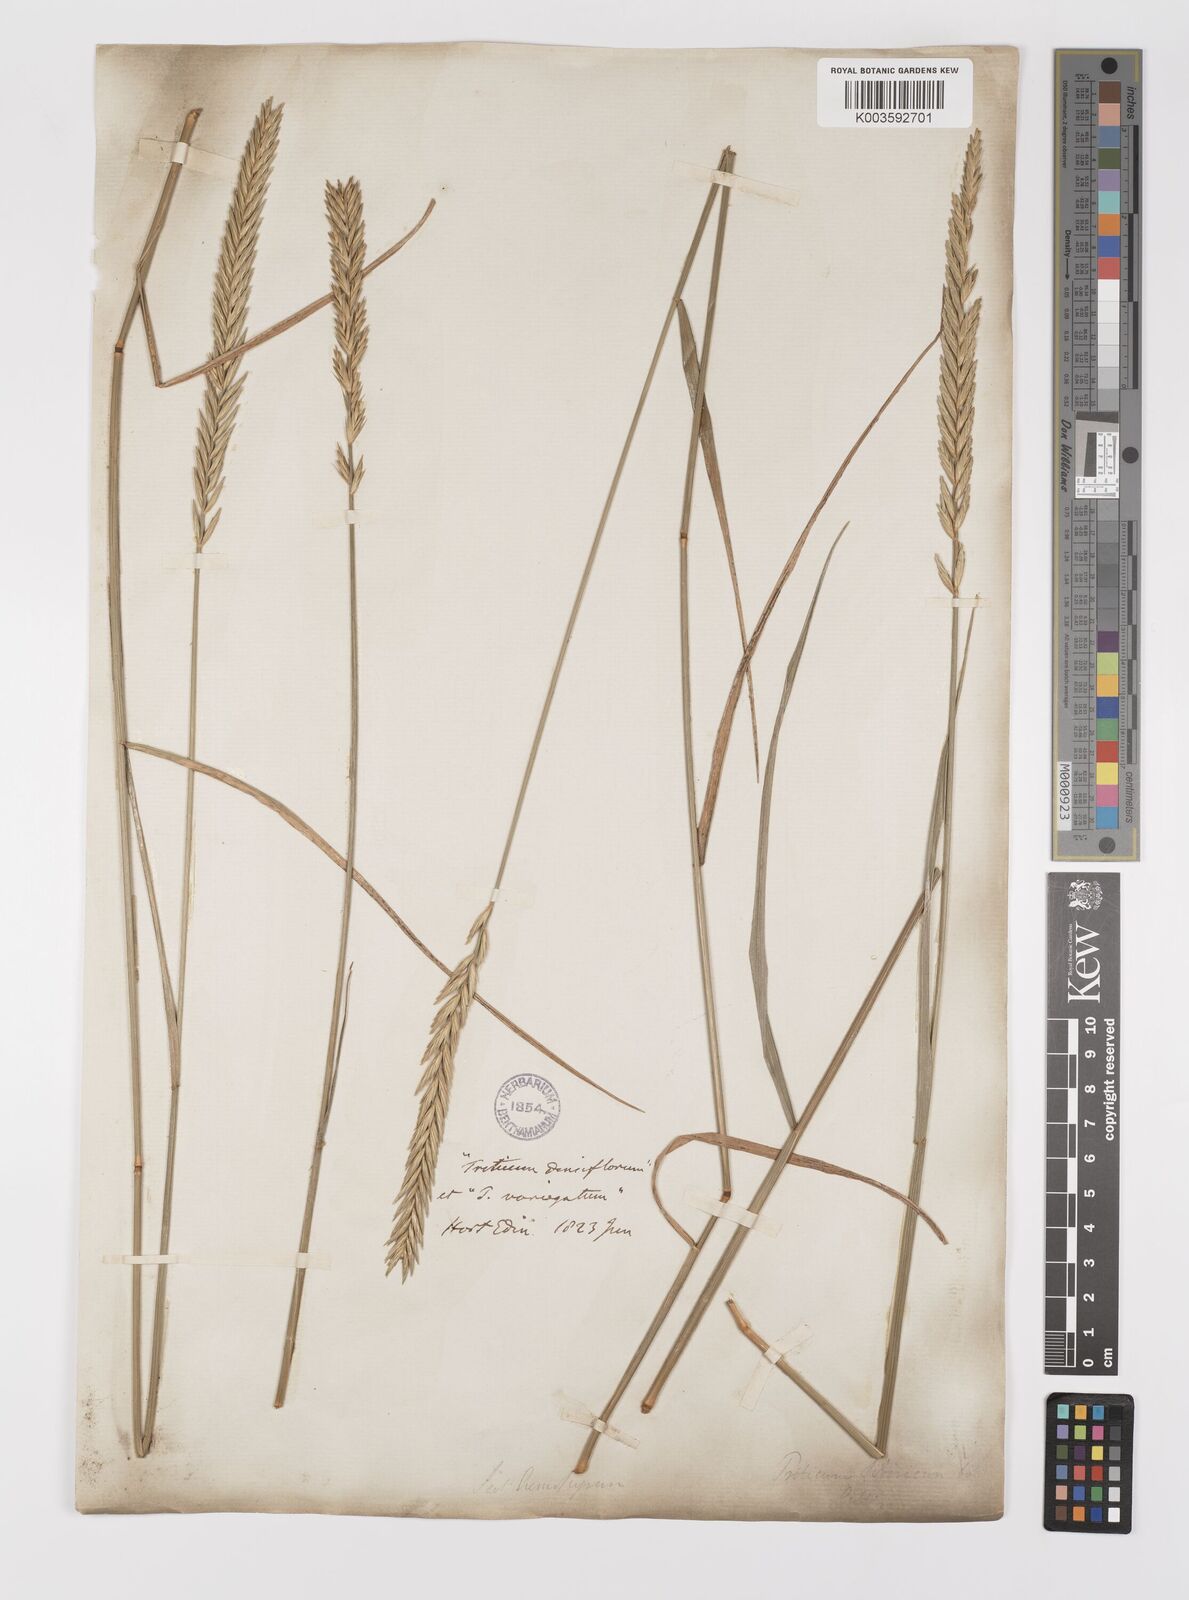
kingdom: Plantae
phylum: Tracheophyta
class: Liliopsida
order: Poales
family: Poaceae
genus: Agropyron
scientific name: Agropyron fragile
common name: Siberian wheatgrass
